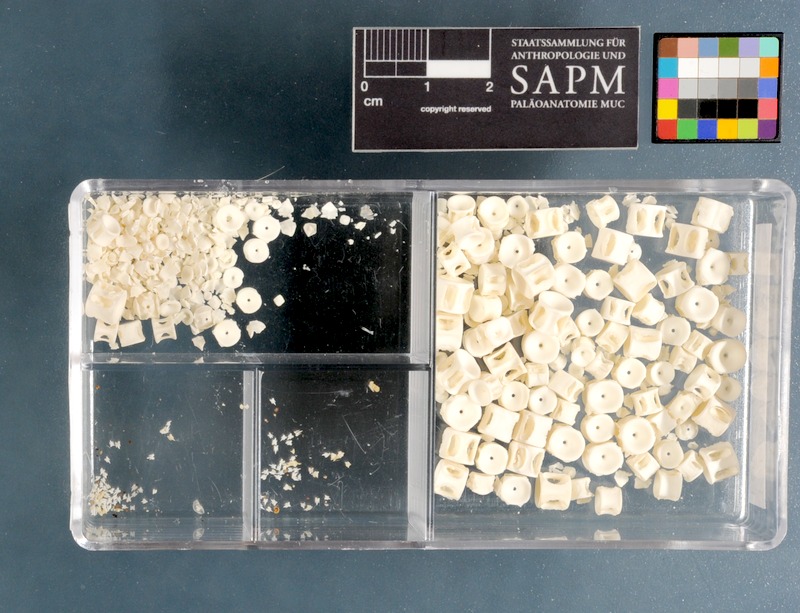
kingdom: Animalia
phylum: Chordata
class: Elasmobranchii
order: Carcharhiniformes
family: Scyliorhinidae
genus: Haploblepharus
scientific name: Haploblepharus fuscus
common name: Brown shyshark
